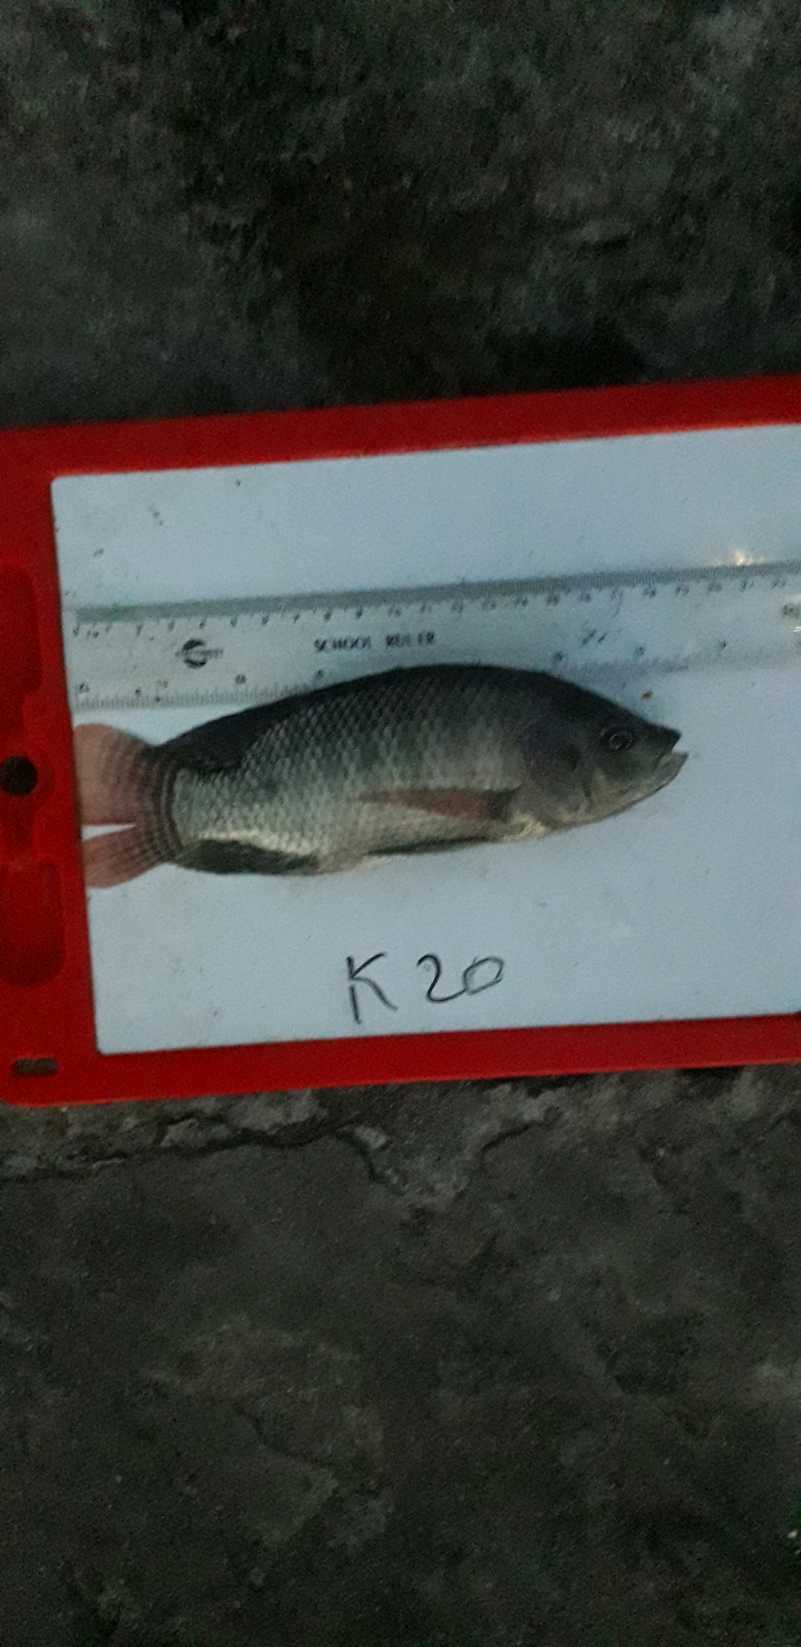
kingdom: Animalia
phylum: Chordata
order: Perciformes
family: Cichlidae
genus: Oreochromis
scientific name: Oreochromis niloticus
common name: Nile tilapia
